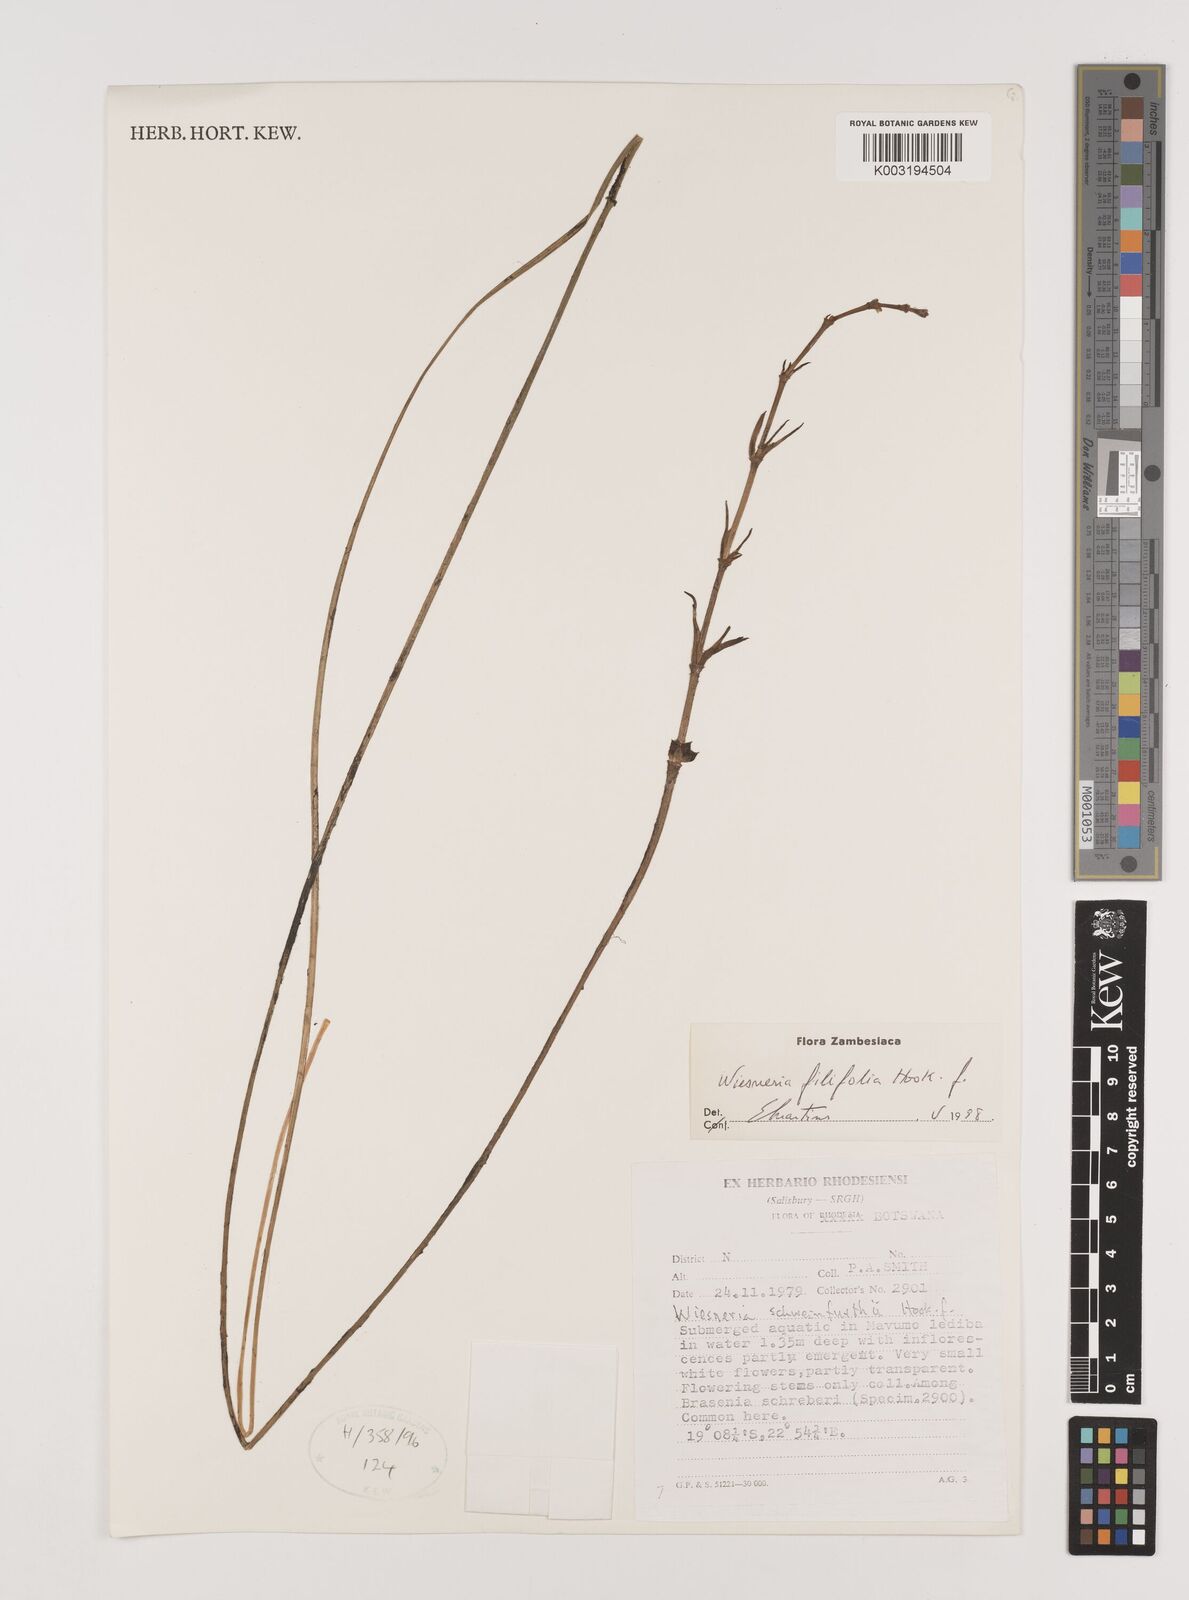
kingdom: Plantae
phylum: Tracheophyta
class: Liliopsida
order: Alismatales
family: Alismataceae
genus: Wiesneria
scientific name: Wiesneria filifolia
